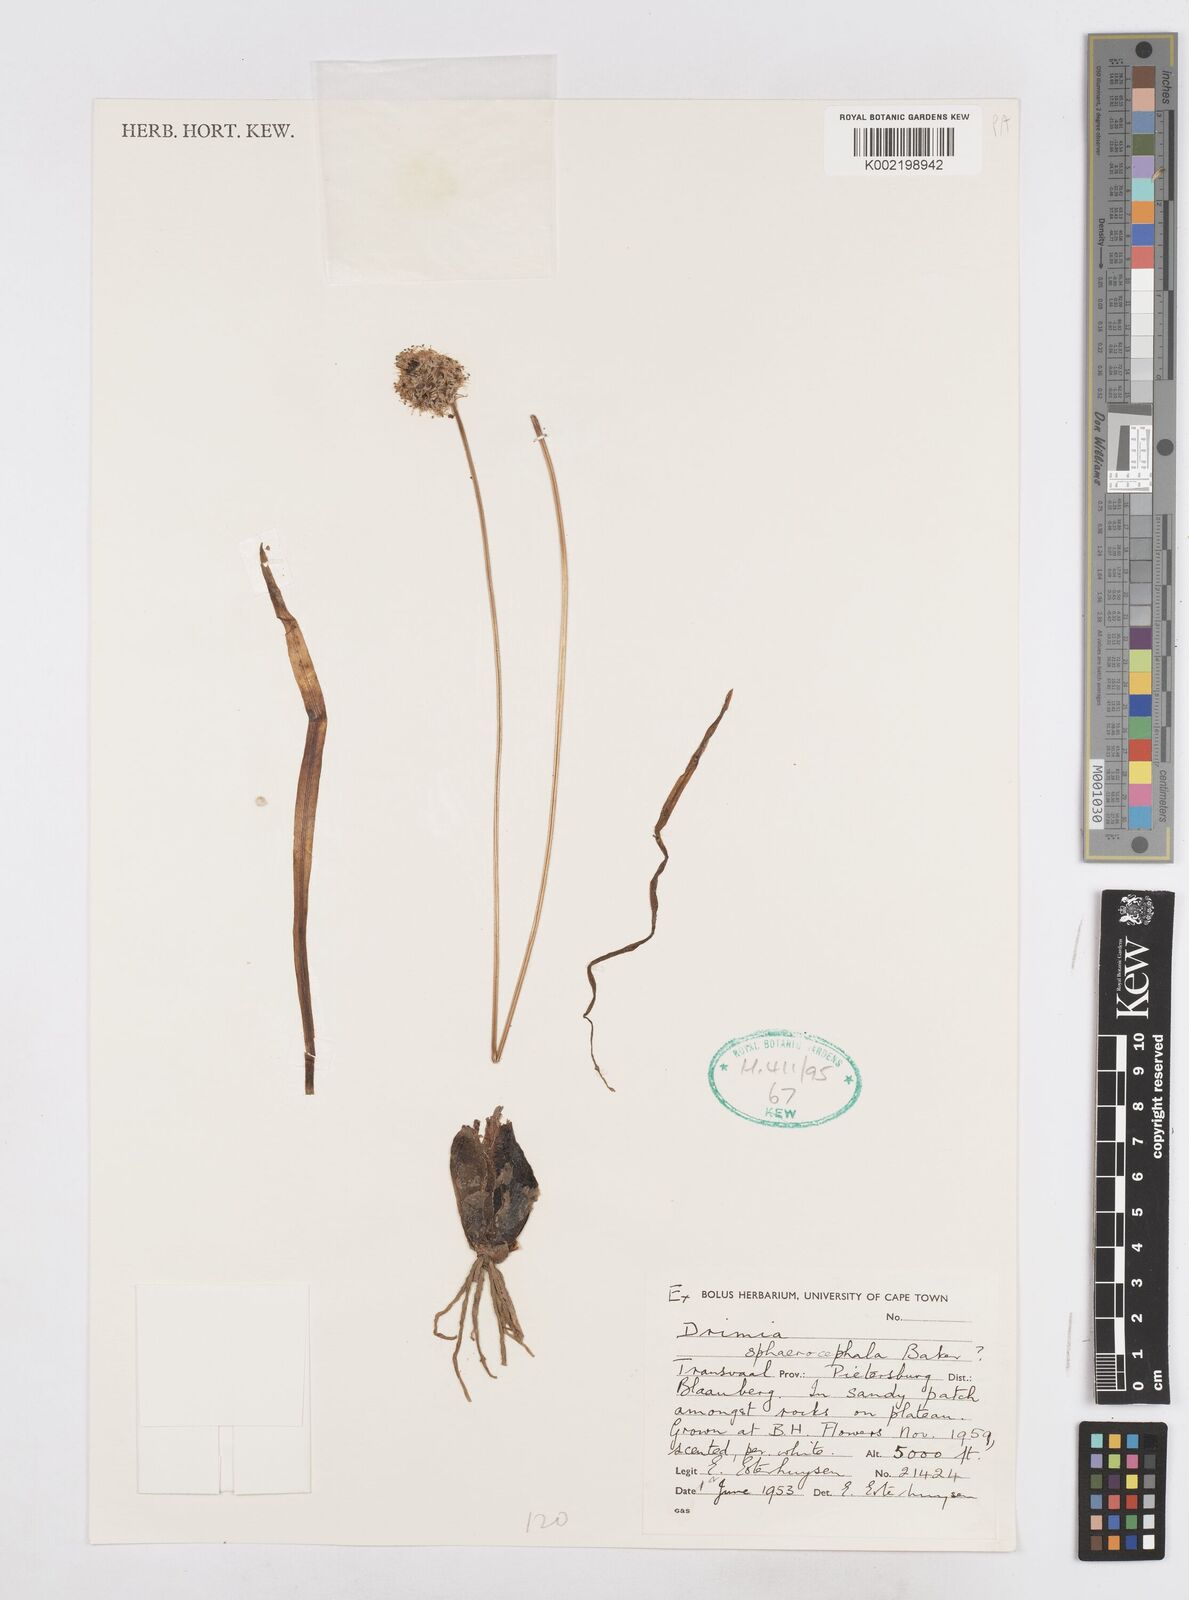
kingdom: Plantae
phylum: Tracheophyta
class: Liliopsida
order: Asparagales
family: Asparagaceae
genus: Drimia
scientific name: Drimia sphaerocephala
